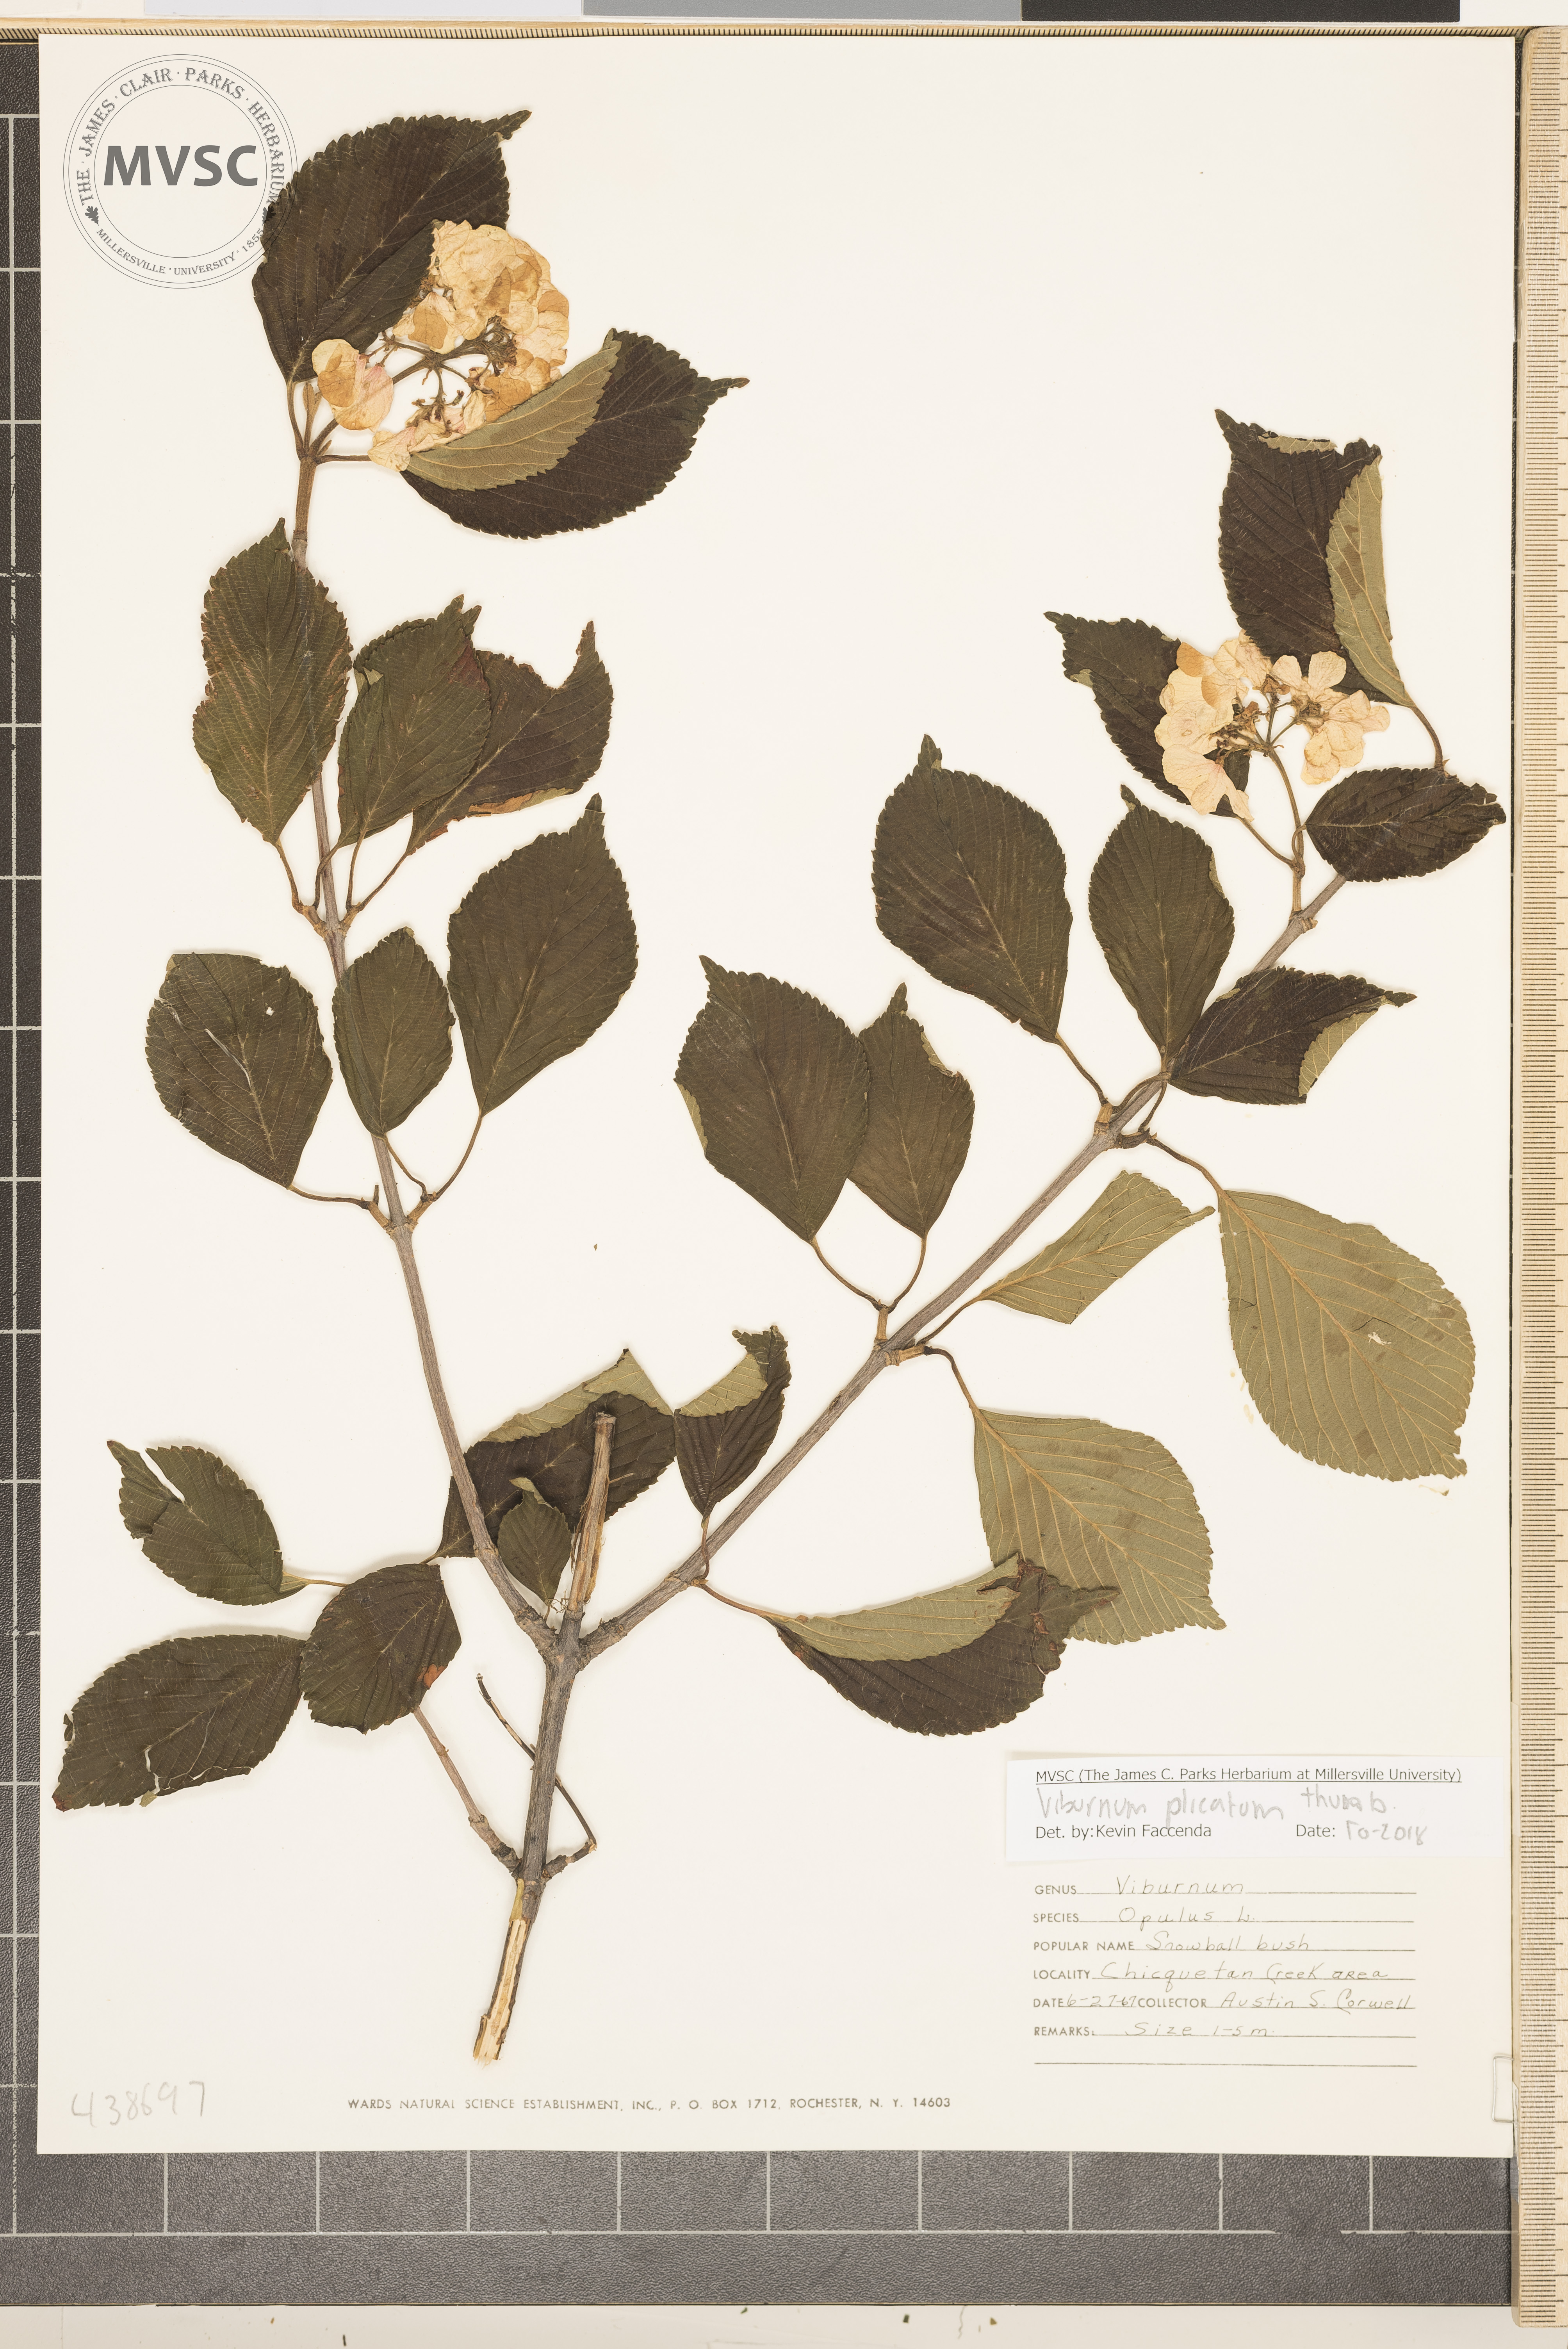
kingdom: Plantae
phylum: Tracheophyta
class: Magnoliopsida
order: Dipsacales
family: Viburnaceae
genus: Viburnum
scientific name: Viburnum plicatum
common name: Japanese snowball
